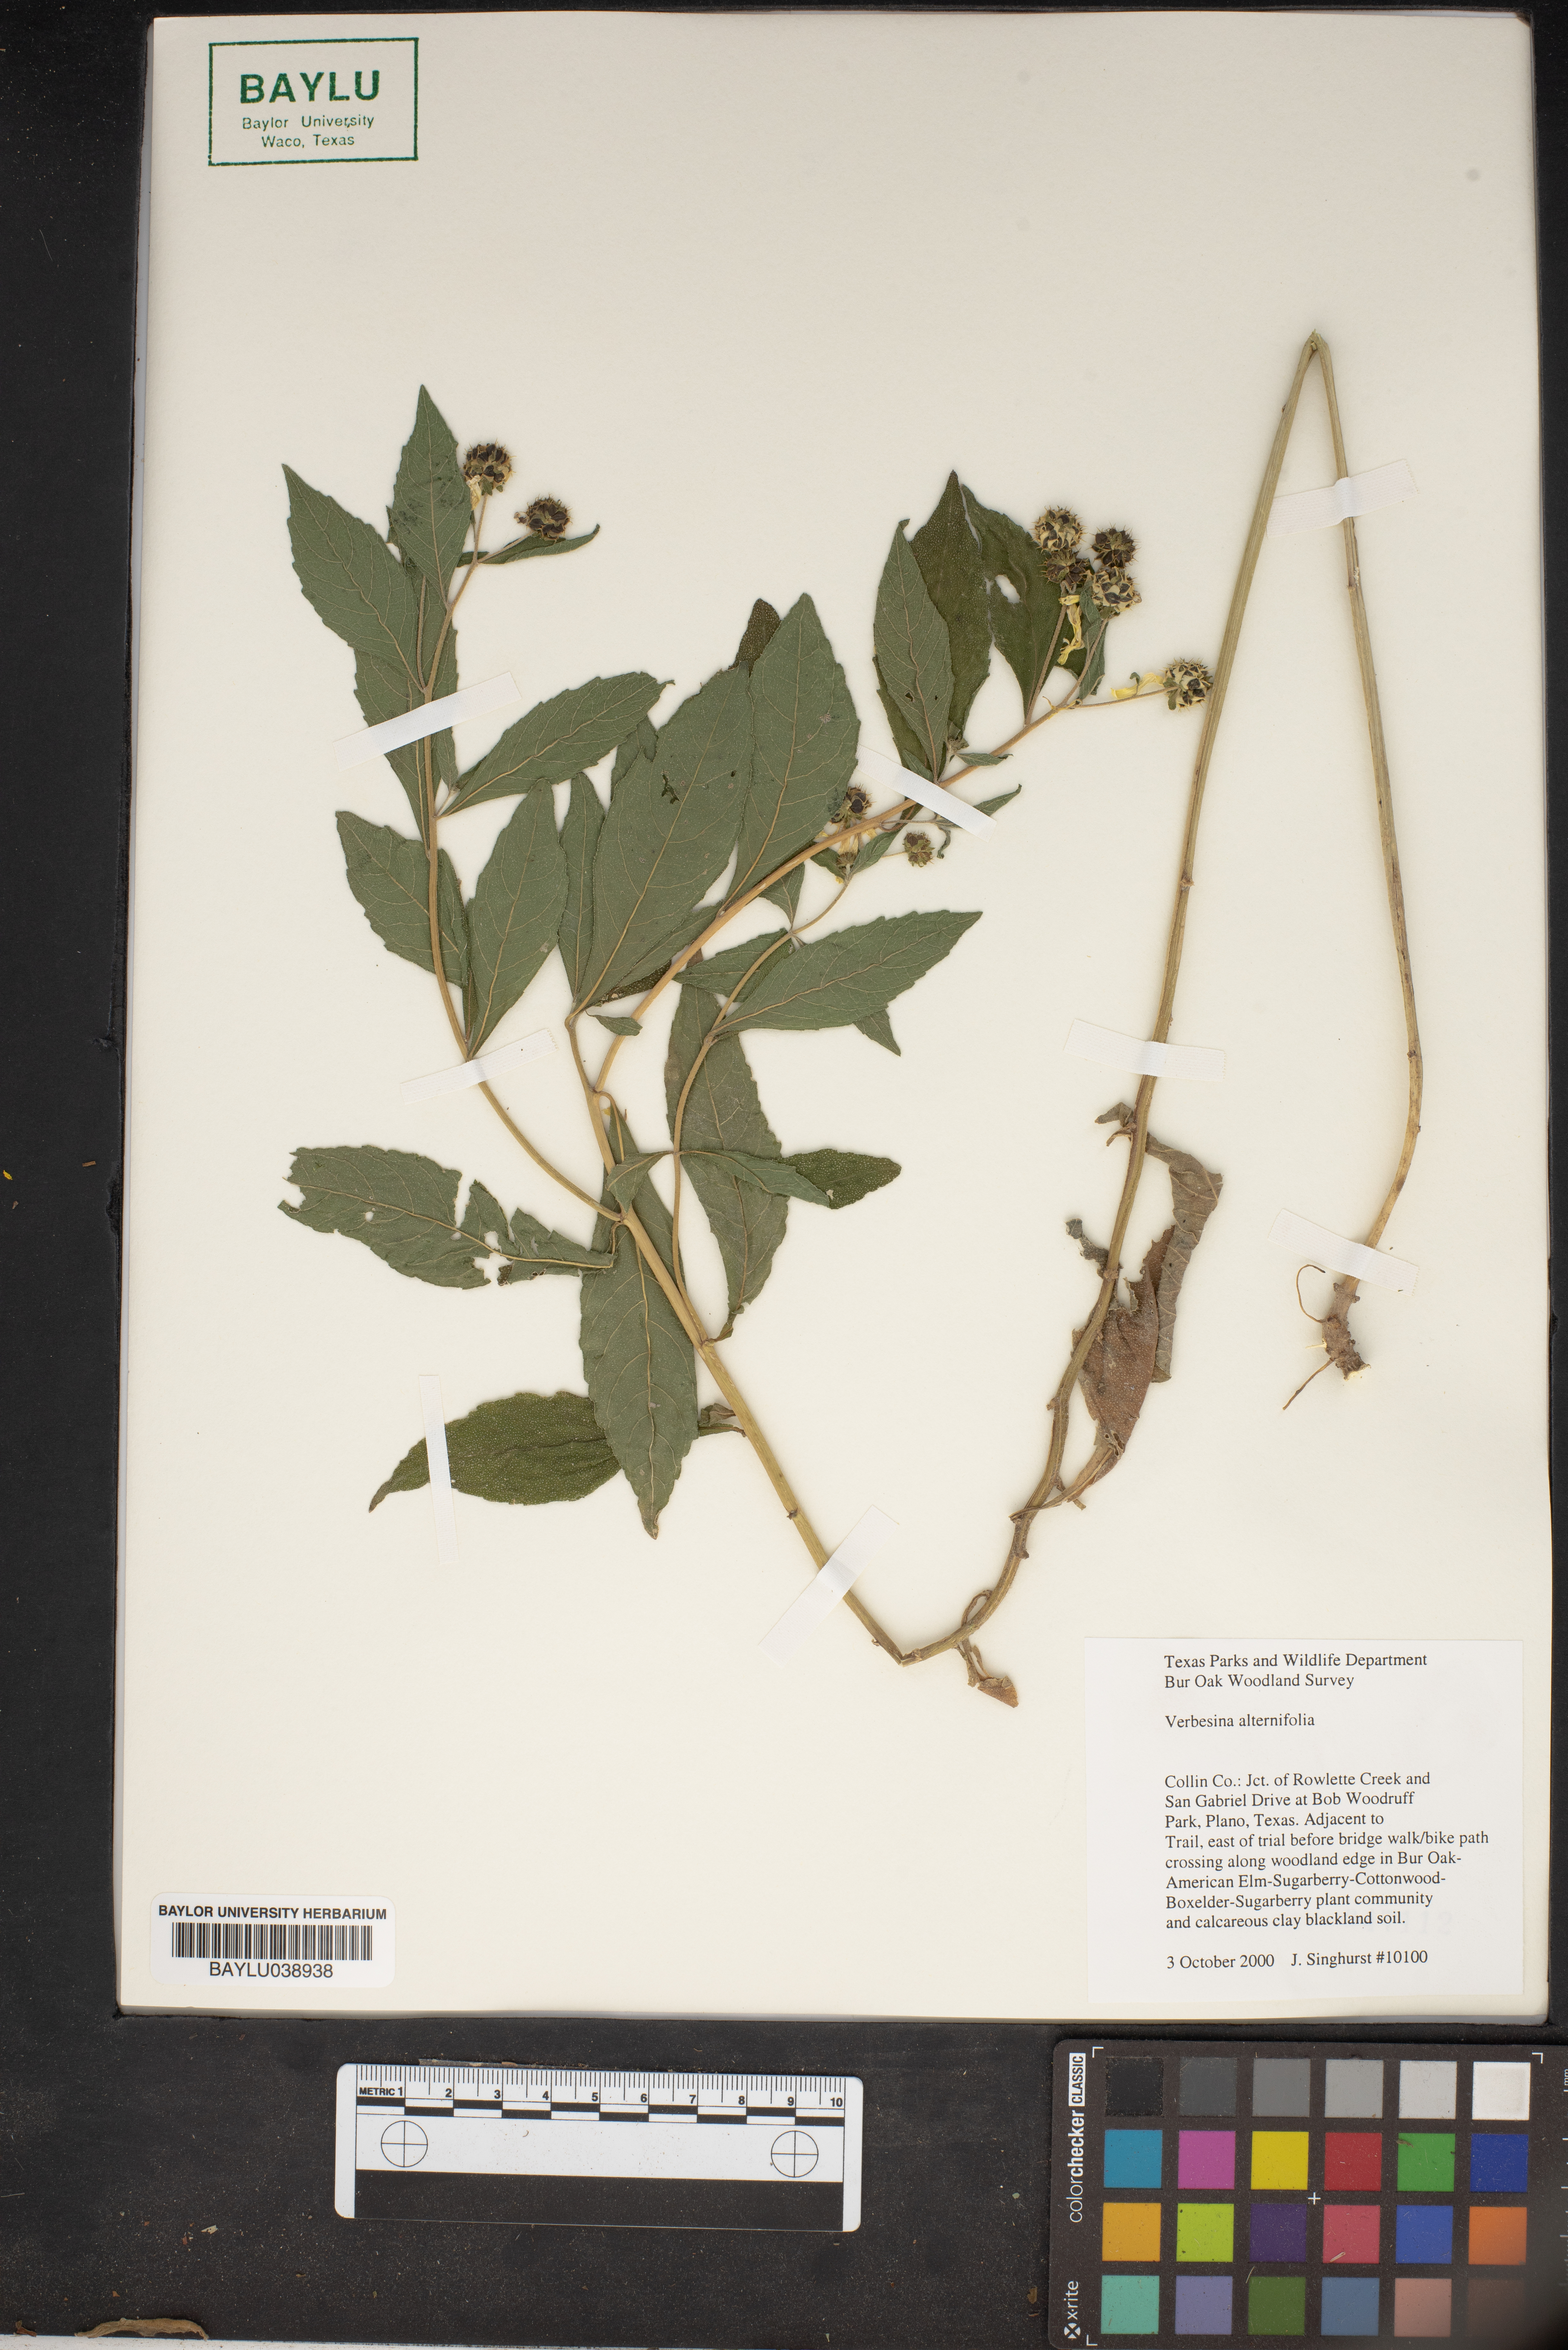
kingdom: Plantae
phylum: Tracheophyta
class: Magnoliopsida
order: Asterales
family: Asteraceae
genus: Verbesina
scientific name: Verbesina alternifolia
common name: Wingstem
